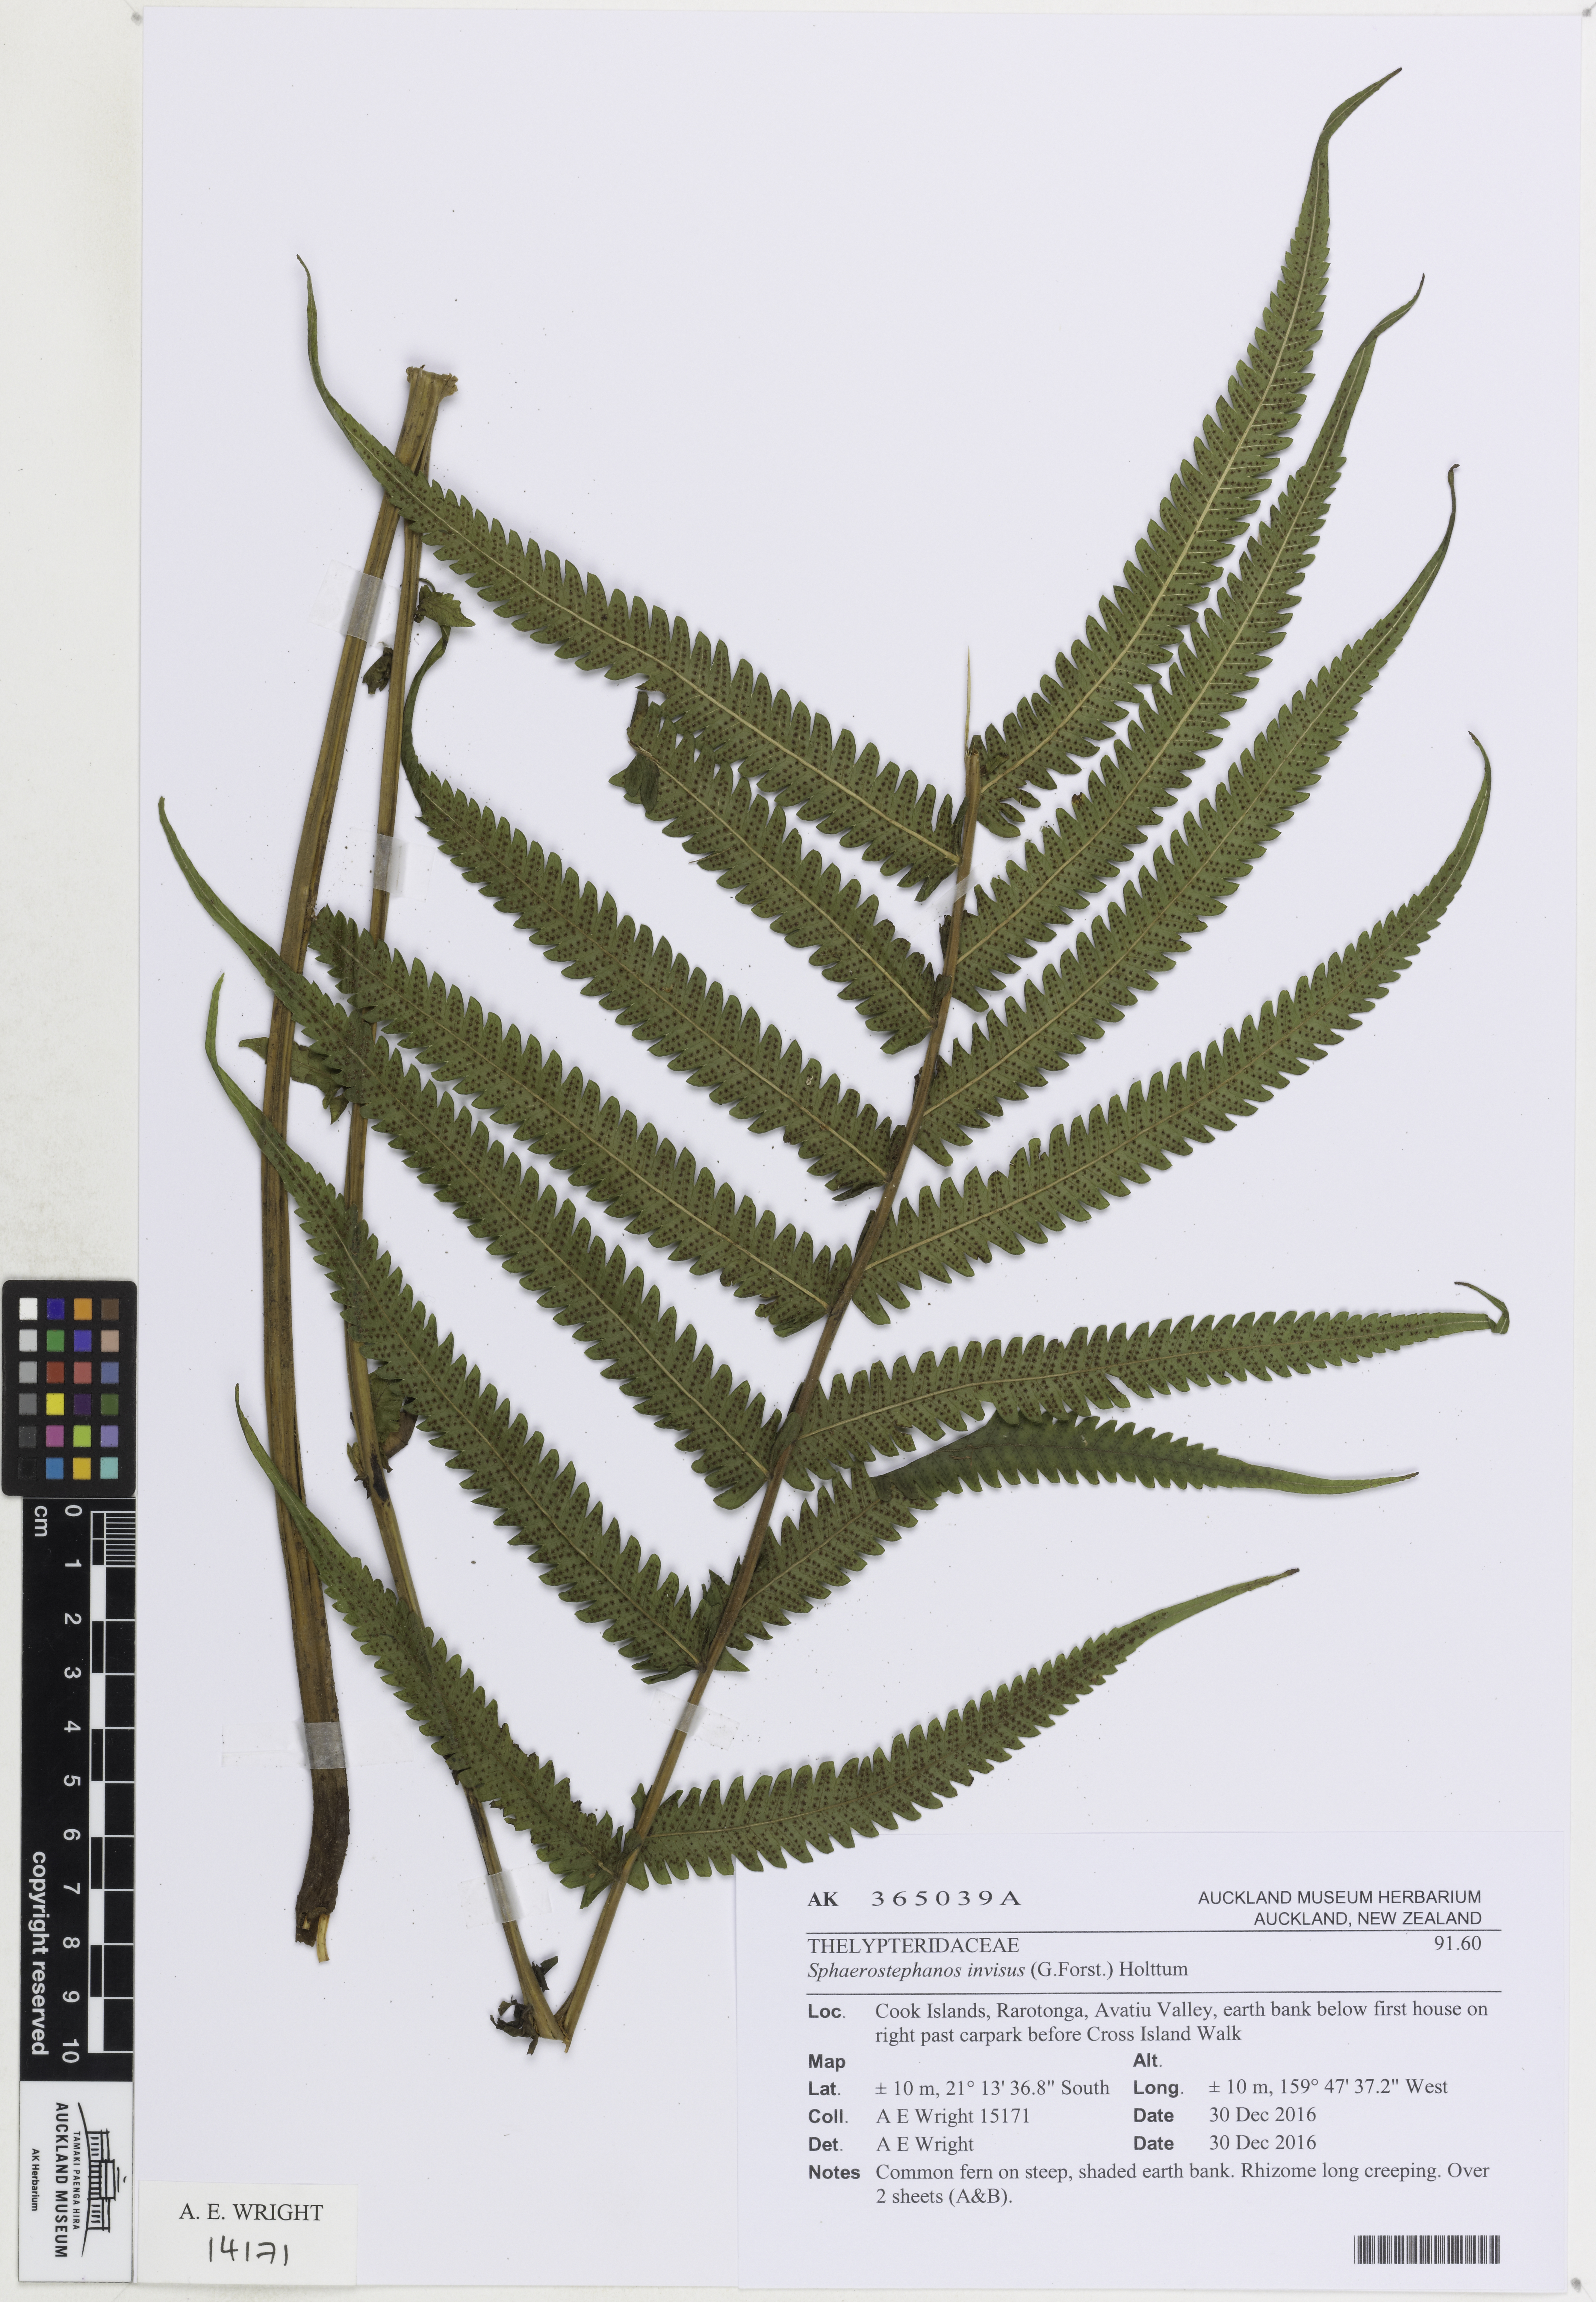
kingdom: Plantae
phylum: Tracheophyta
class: Polypodiopsida
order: Polypodiales
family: Thelypteridaceae
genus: Strophocaulon
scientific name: Strophocaulon invisum
